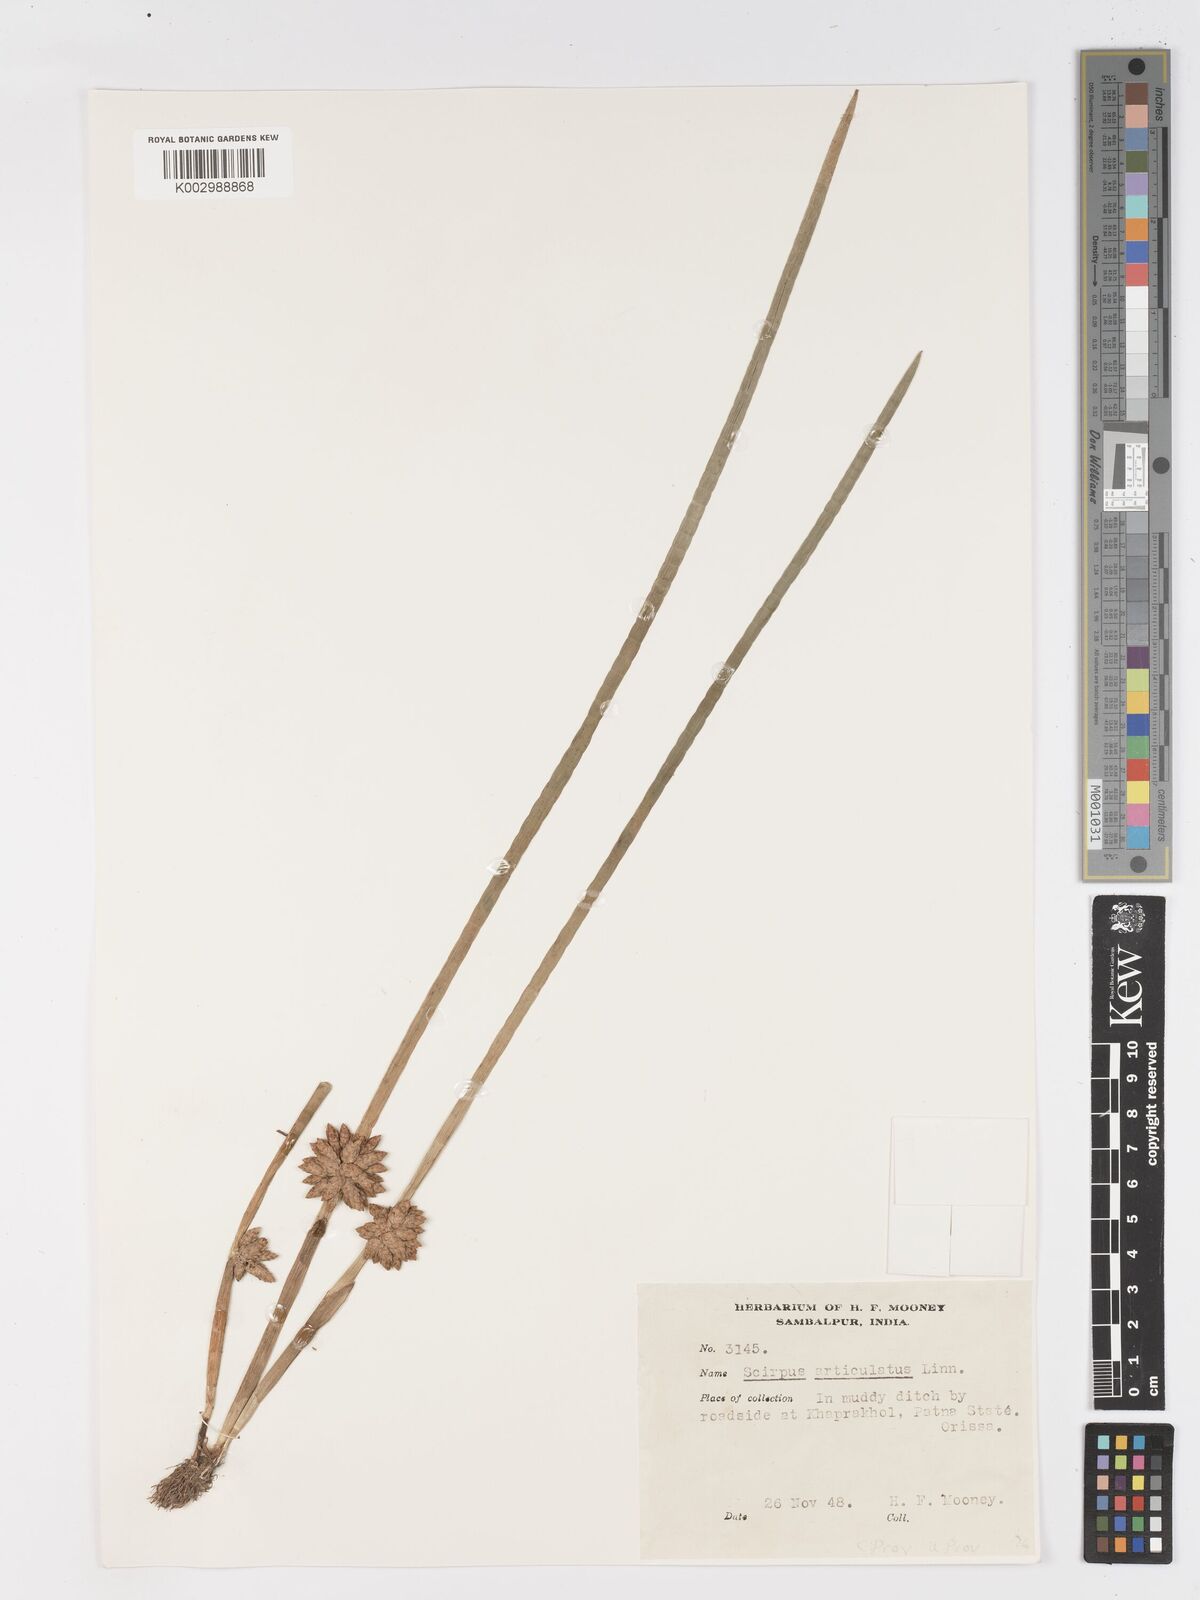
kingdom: Plantae
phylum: Tracheophyta
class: Liliopsida
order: Poales
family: Cyperaceae
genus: Schoenoplectiella
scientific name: Schoenoplectiella praelongata
